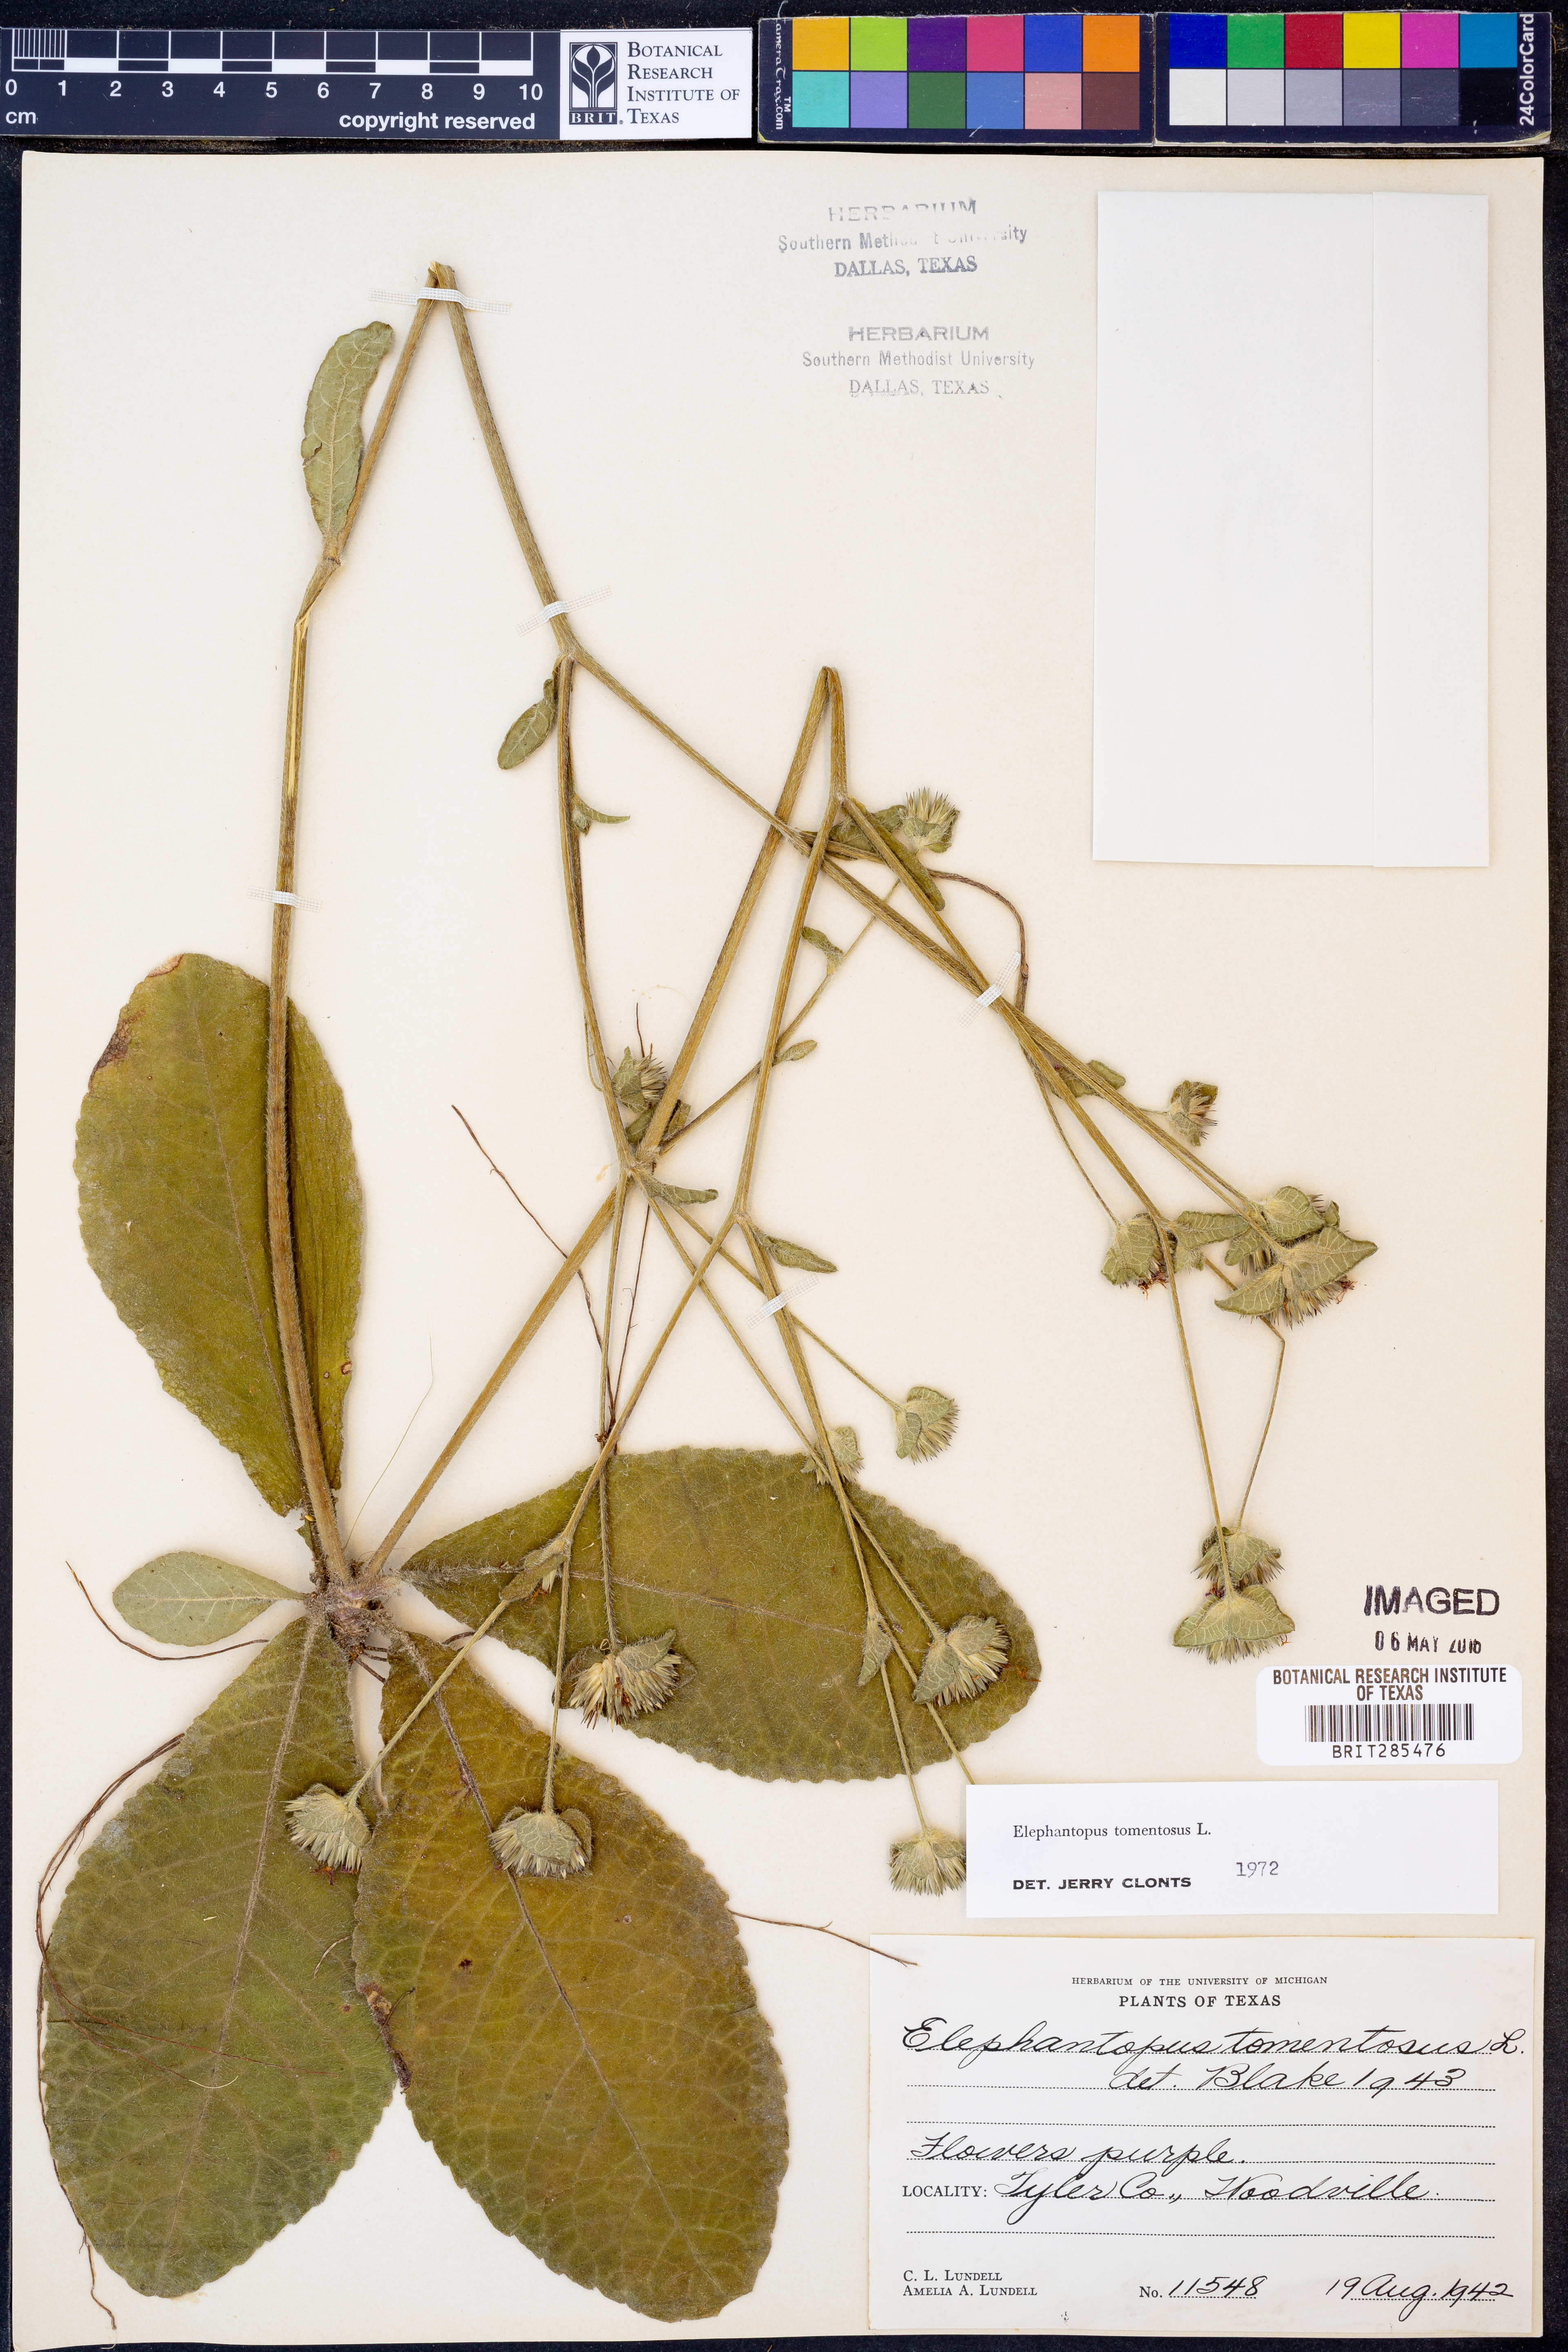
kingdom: Plantae
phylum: Tracheophyta
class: Magnoliopsida
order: Asterales
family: Asteraceae
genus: Elephantopus
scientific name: Elephantopus tomentosus
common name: Tobacco-weed
